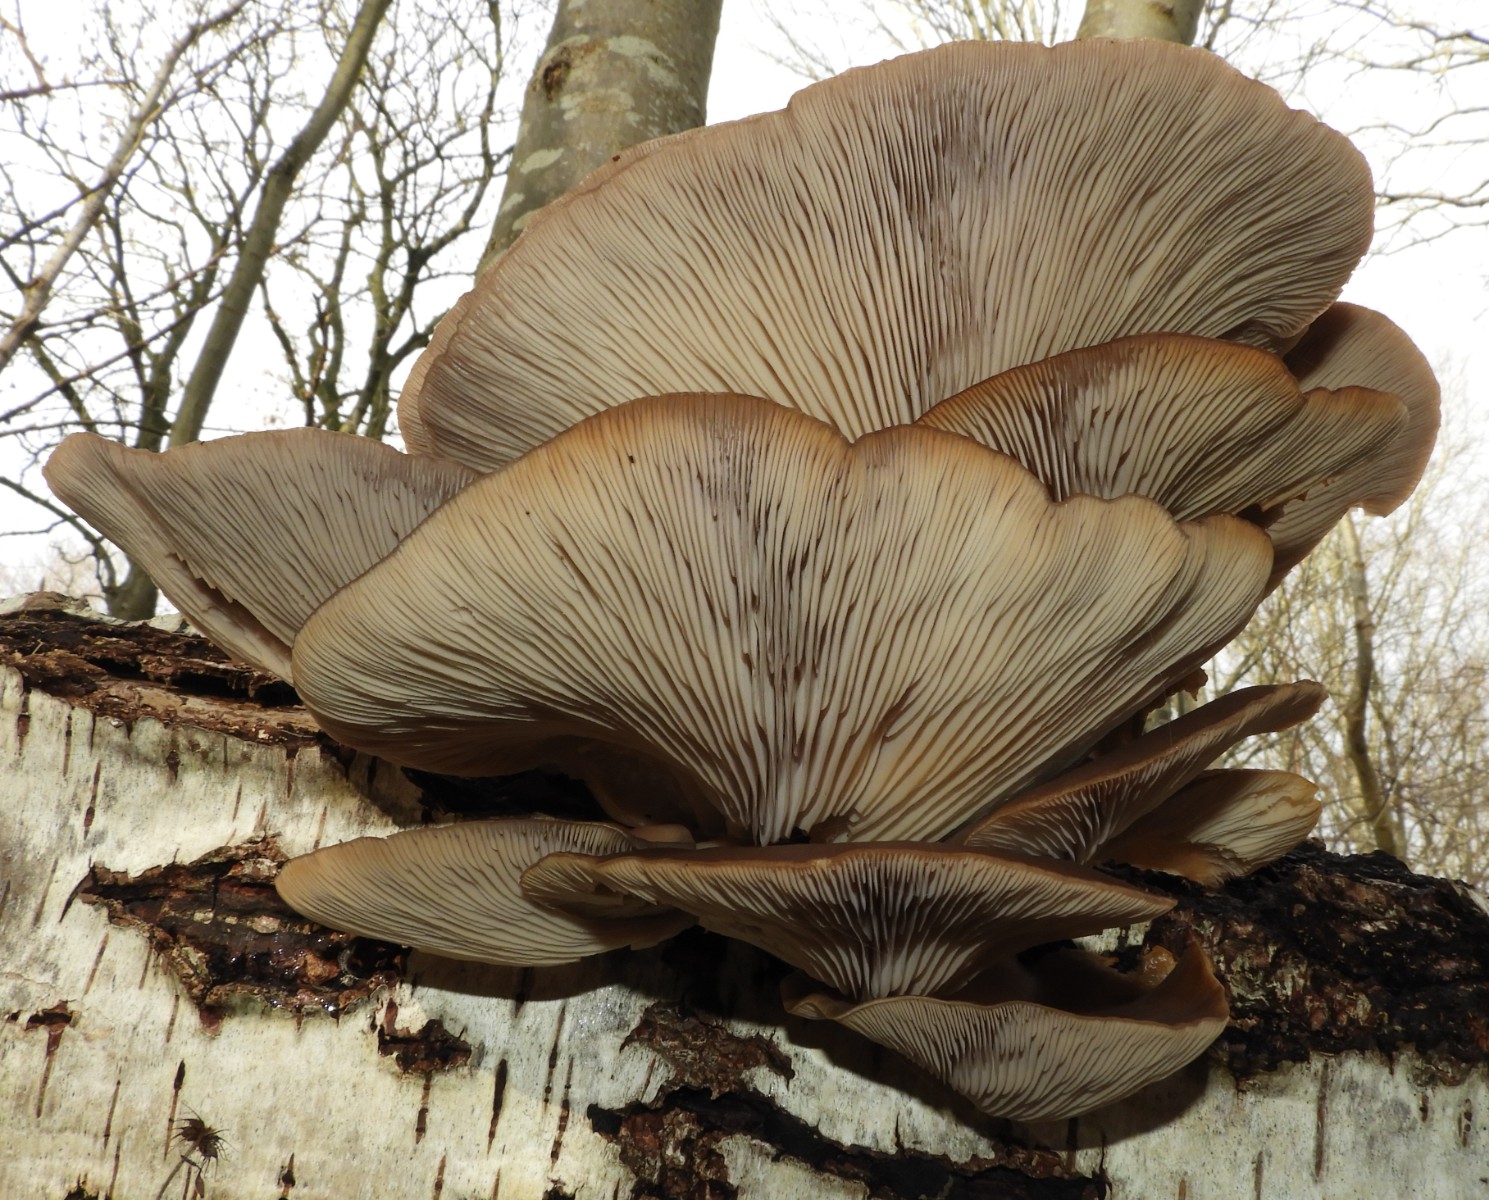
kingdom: Fungi
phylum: Basidiomycota
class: Agaricomycetes
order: Agaricales
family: Pleurotaceae
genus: Pleurotus
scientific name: Pleurotus ostreatus
